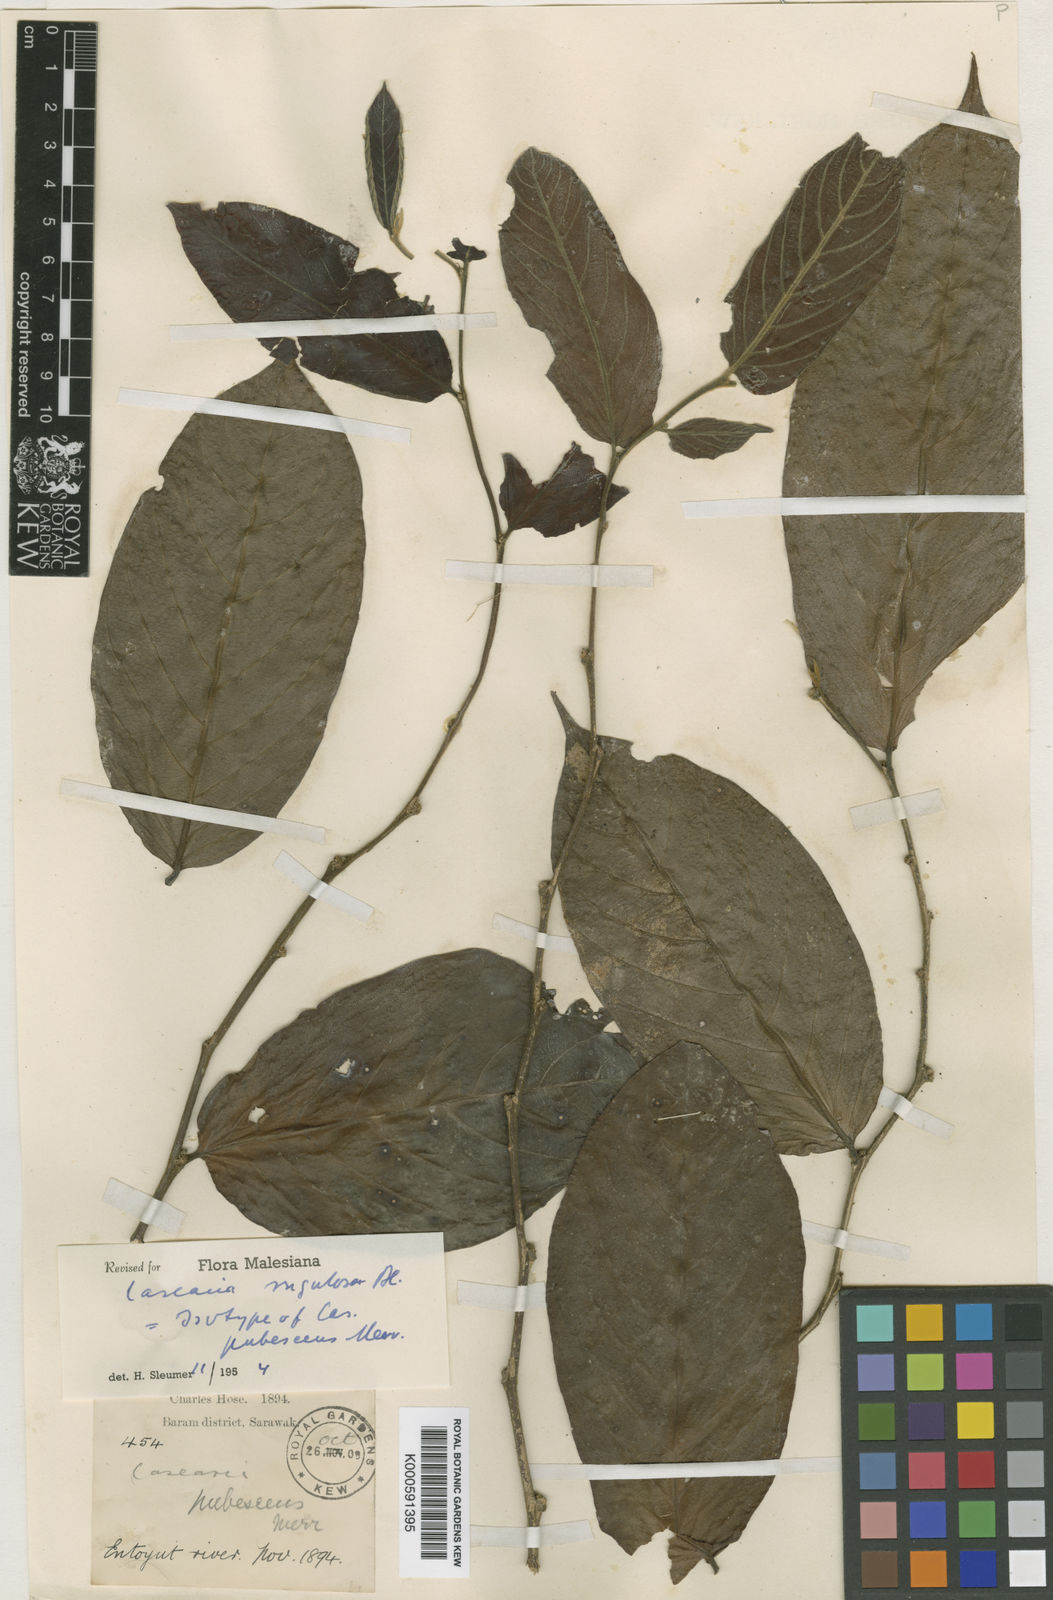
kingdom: Plantae
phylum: Tracheophyta
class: Magnoliopsida
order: Malpighiales
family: Salicaceae
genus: Casearia
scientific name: Casearia rugulosa
